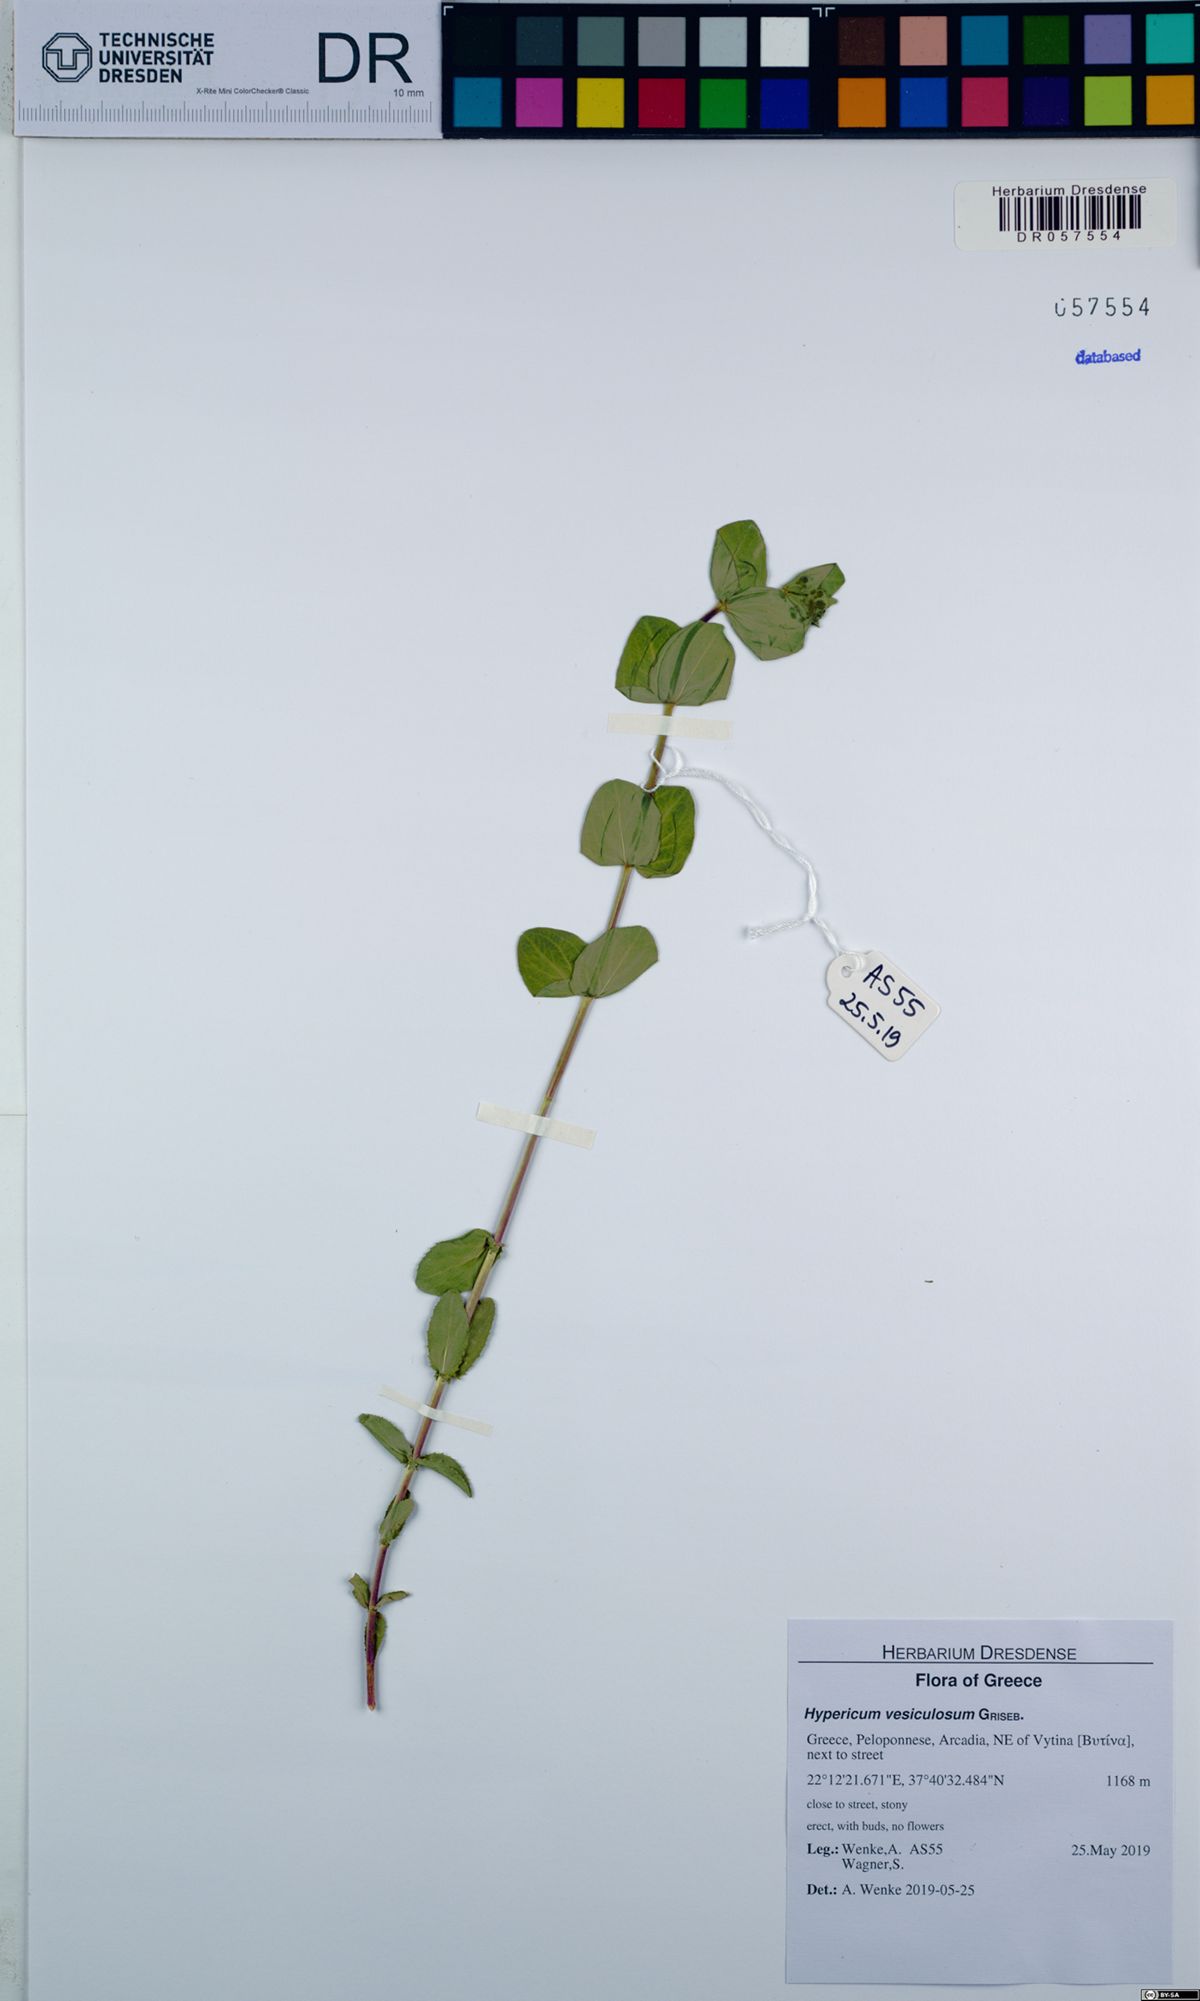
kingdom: Plantae
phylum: Tracheophyta
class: Magnoliopsida
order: Malpighiales
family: Hypericaceae
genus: Hypericum
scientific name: Hypericum vesiculosum
